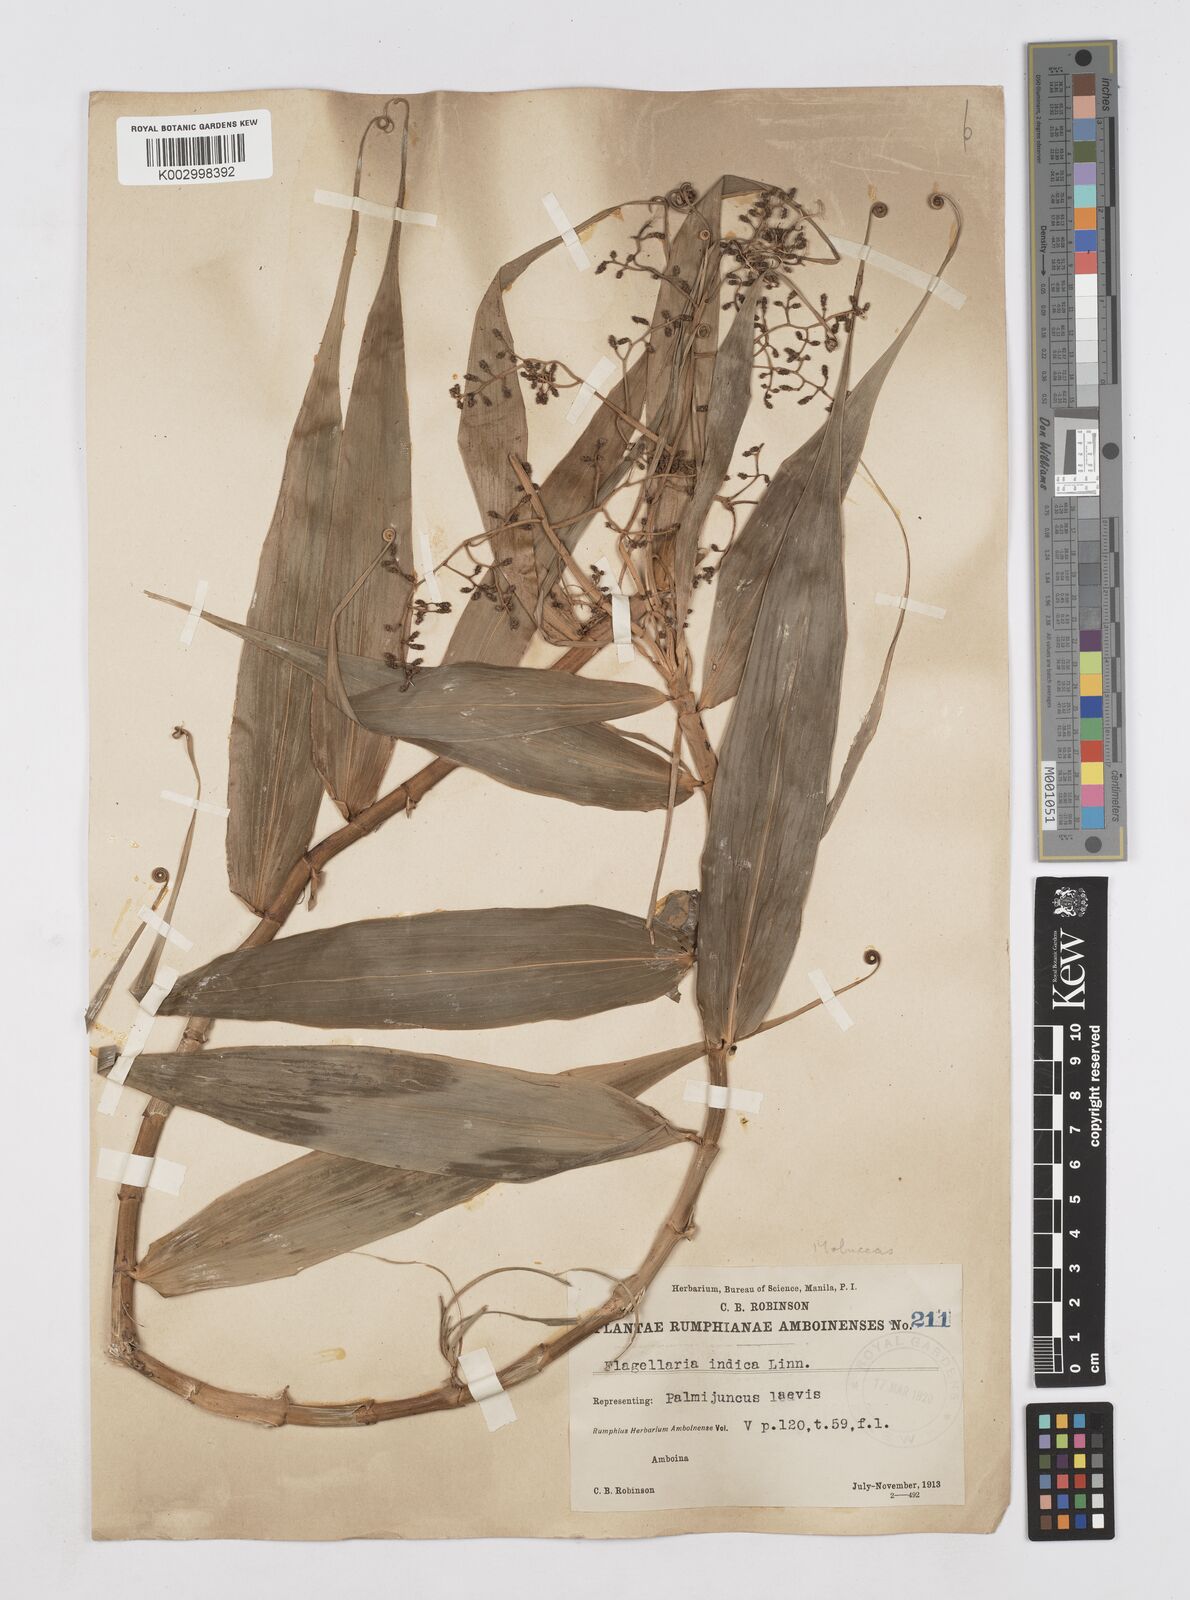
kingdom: Plantae
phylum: Tracheophyta
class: Liliopsida
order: Poales
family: Flagellariaceae
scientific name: Flagellariaceae
